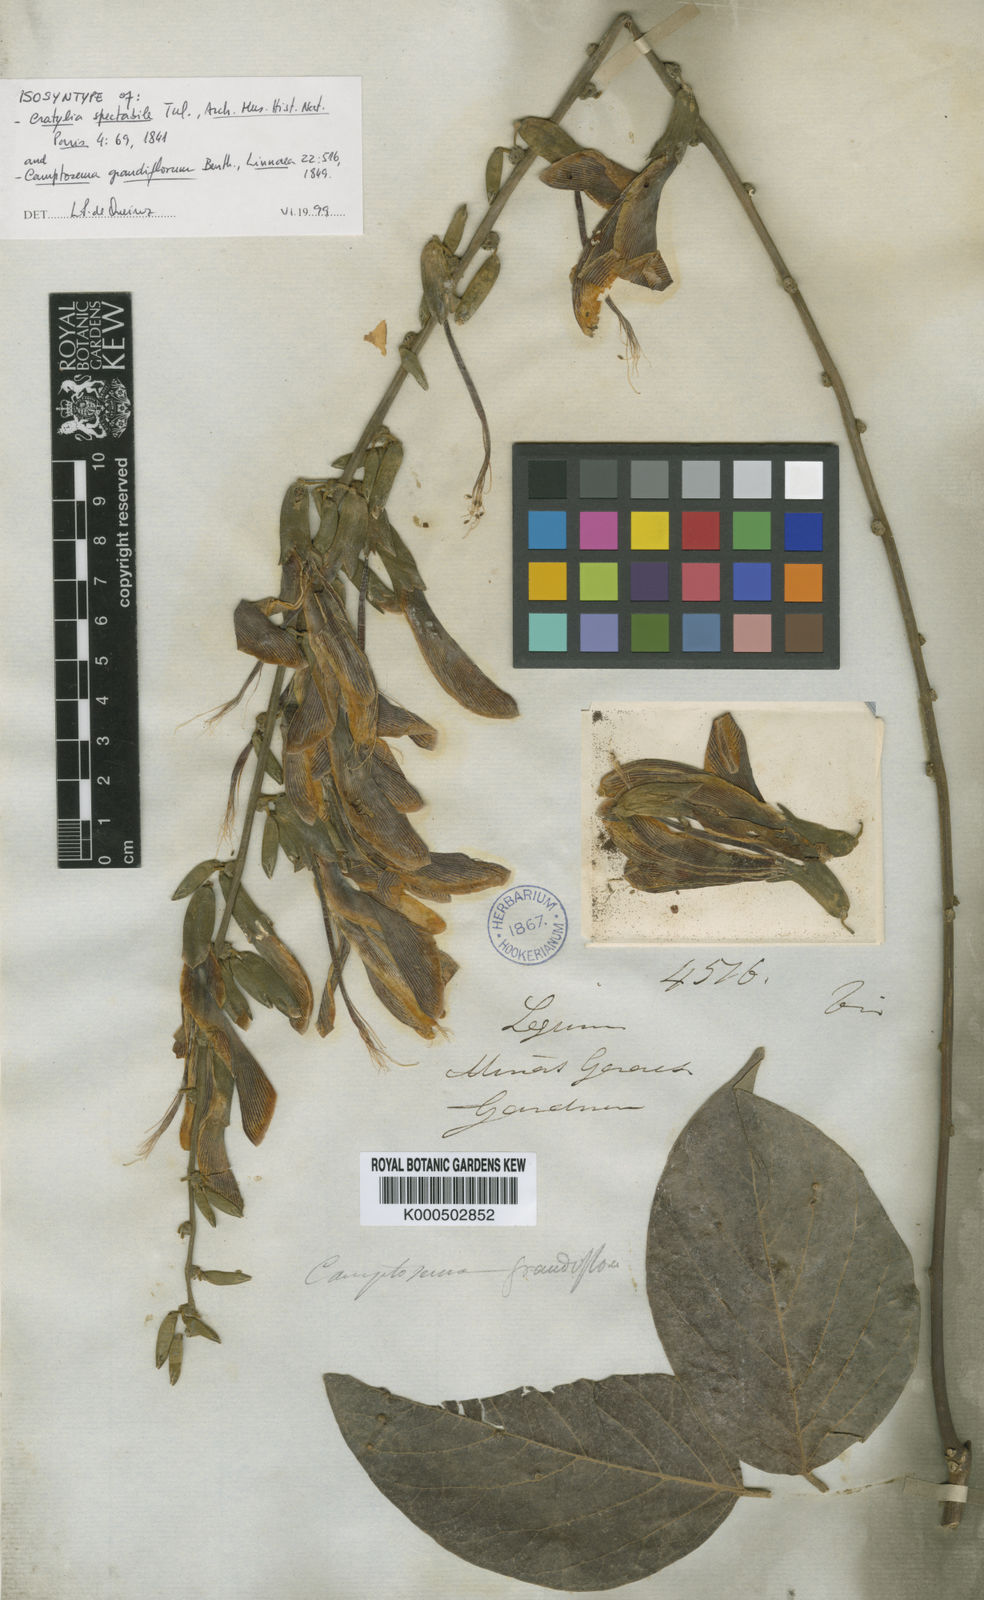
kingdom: Plantae
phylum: Tracheophyta
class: Magnoliopsida
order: Fabales
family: Fabaceae
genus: Camptosema
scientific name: Camptosema spectabile
